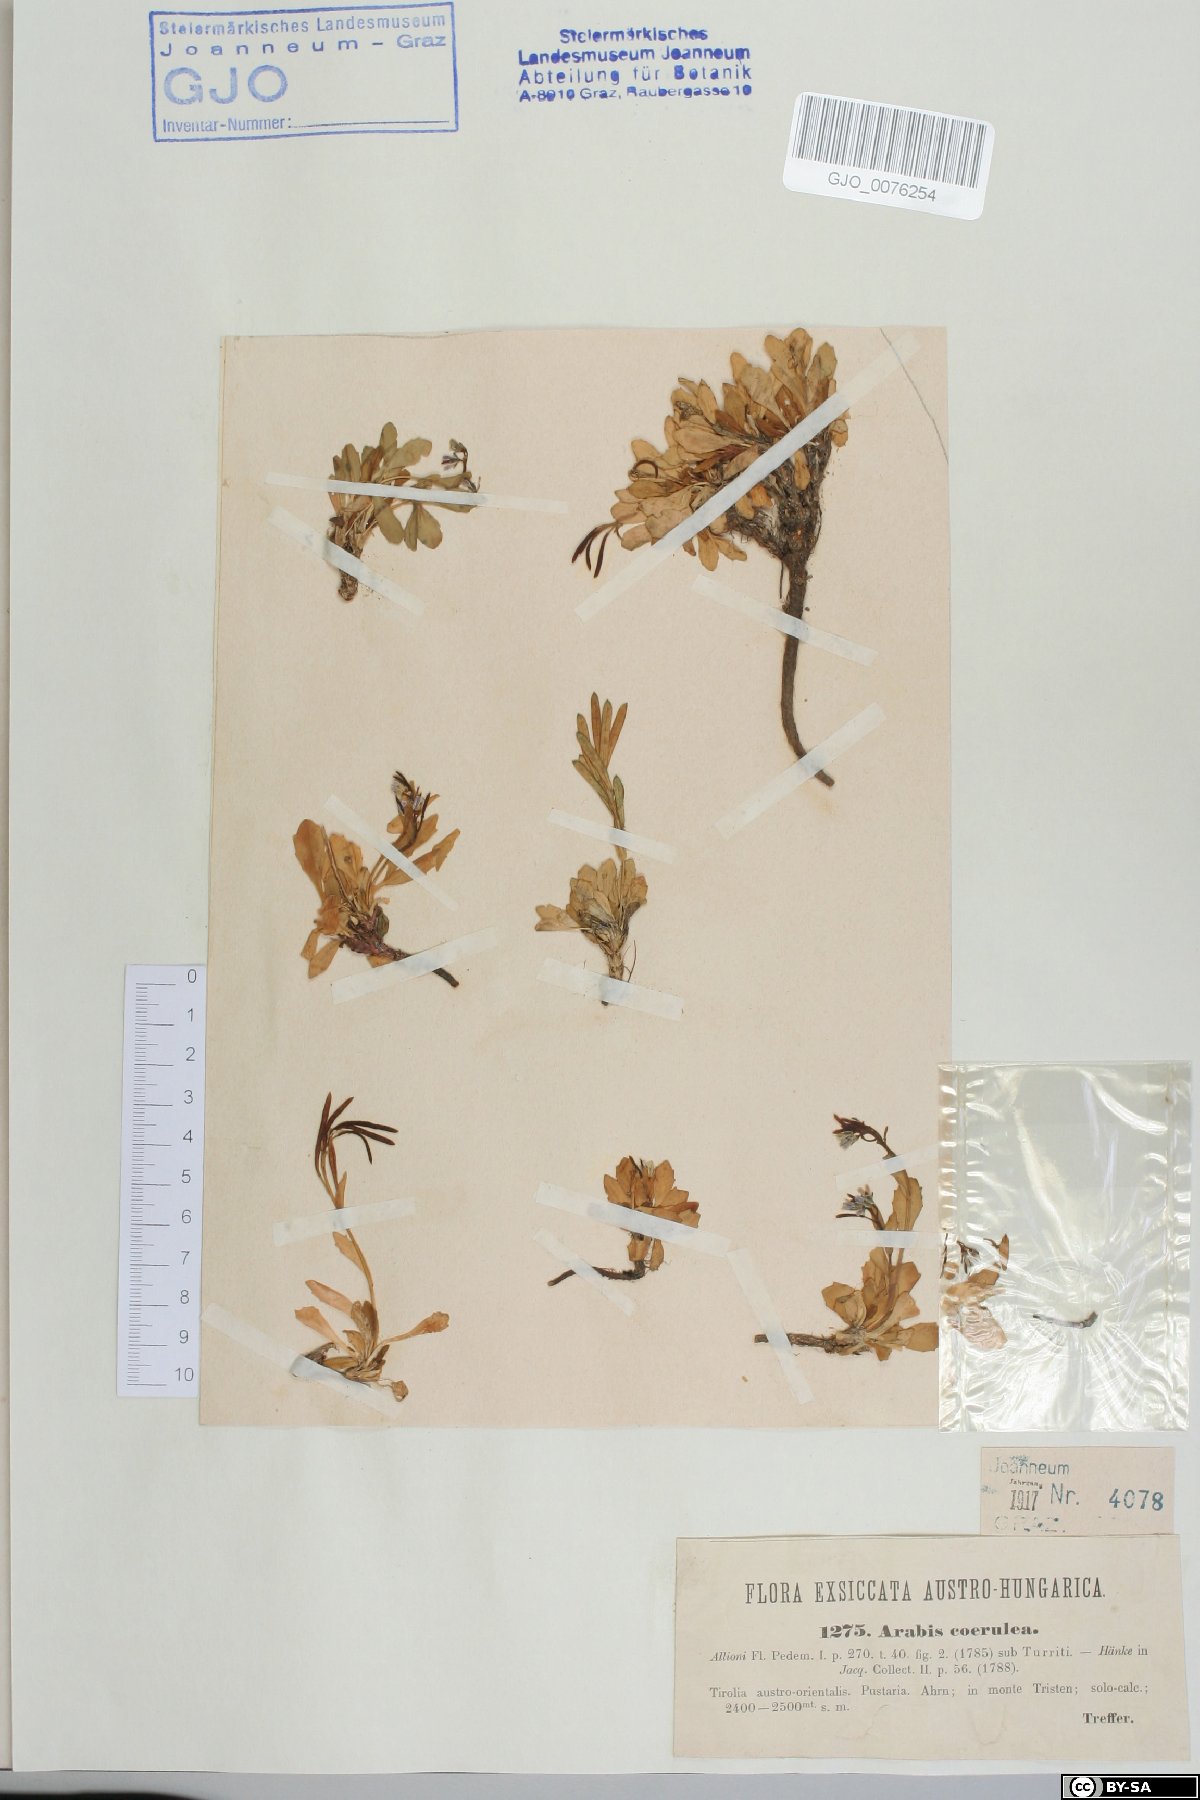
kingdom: Plantae
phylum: Tracheophyta
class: Magnoliopsida
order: Brassicales
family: Brassicaceae
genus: Arabis
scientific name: Arabis caerulea
